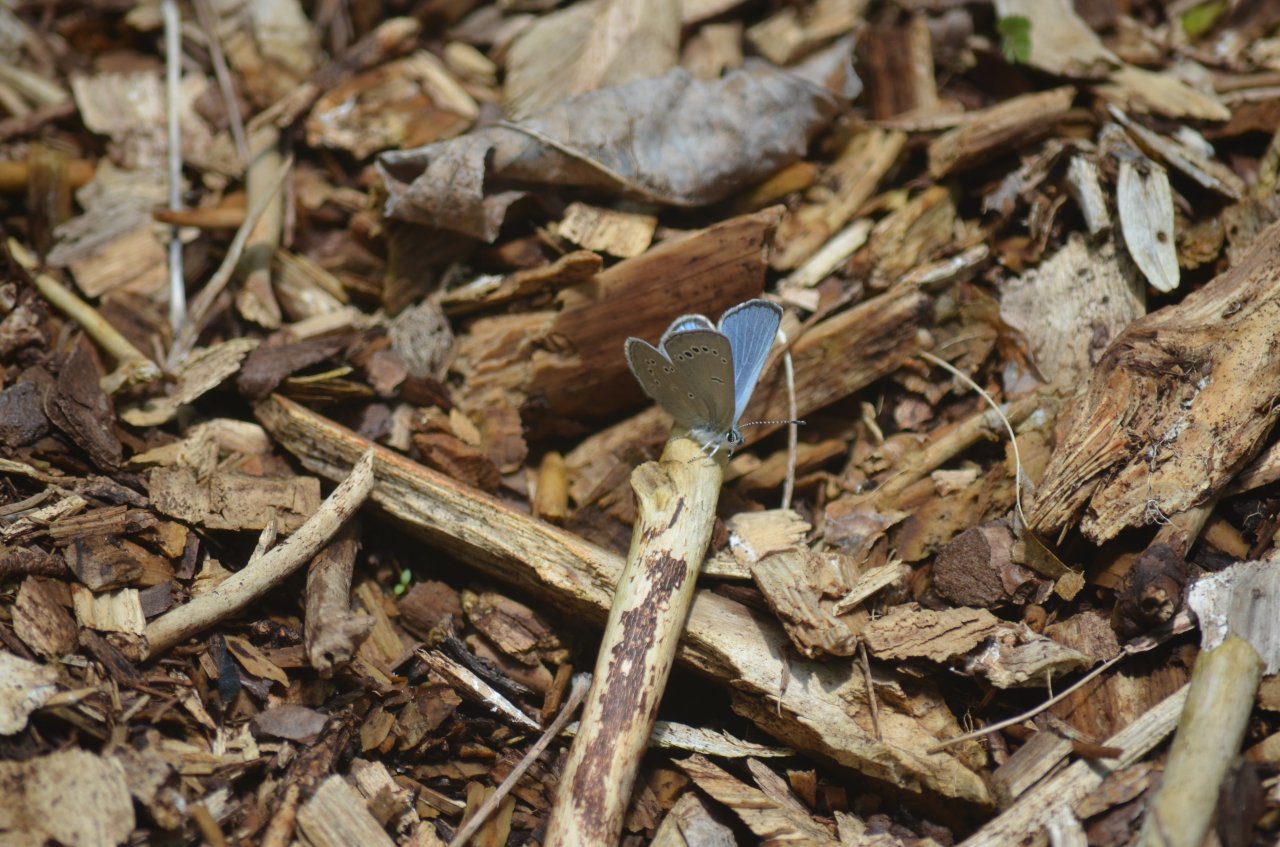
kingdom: Animalia
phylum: Arthropoda
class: Insecta
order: Lepidoptera
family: Lycaenidae
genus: Glaucopsyche
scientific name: Glaucopsyche lygdamus
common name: Silvery Blue
